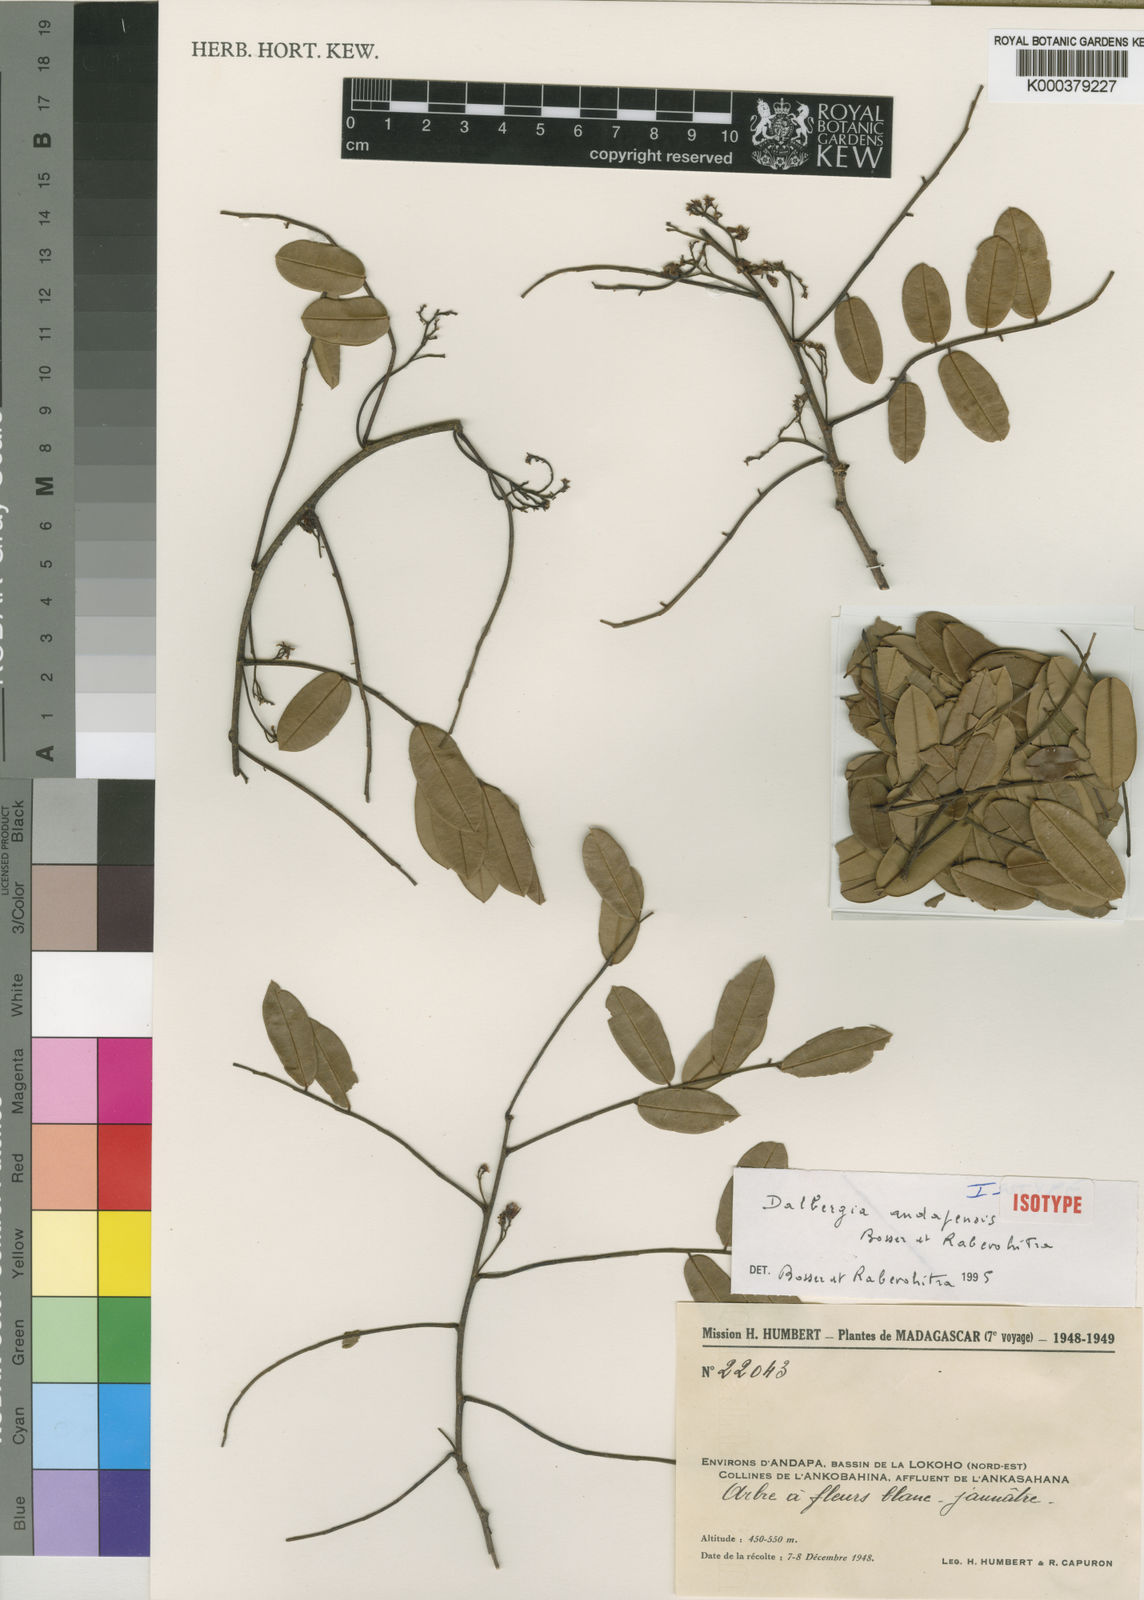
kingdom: Plantae
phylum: Tracheophyta
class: Magnoliopsida
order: Fabales
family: Fabaceae
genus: Dalbergia
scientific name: Dalbergia andapensis
